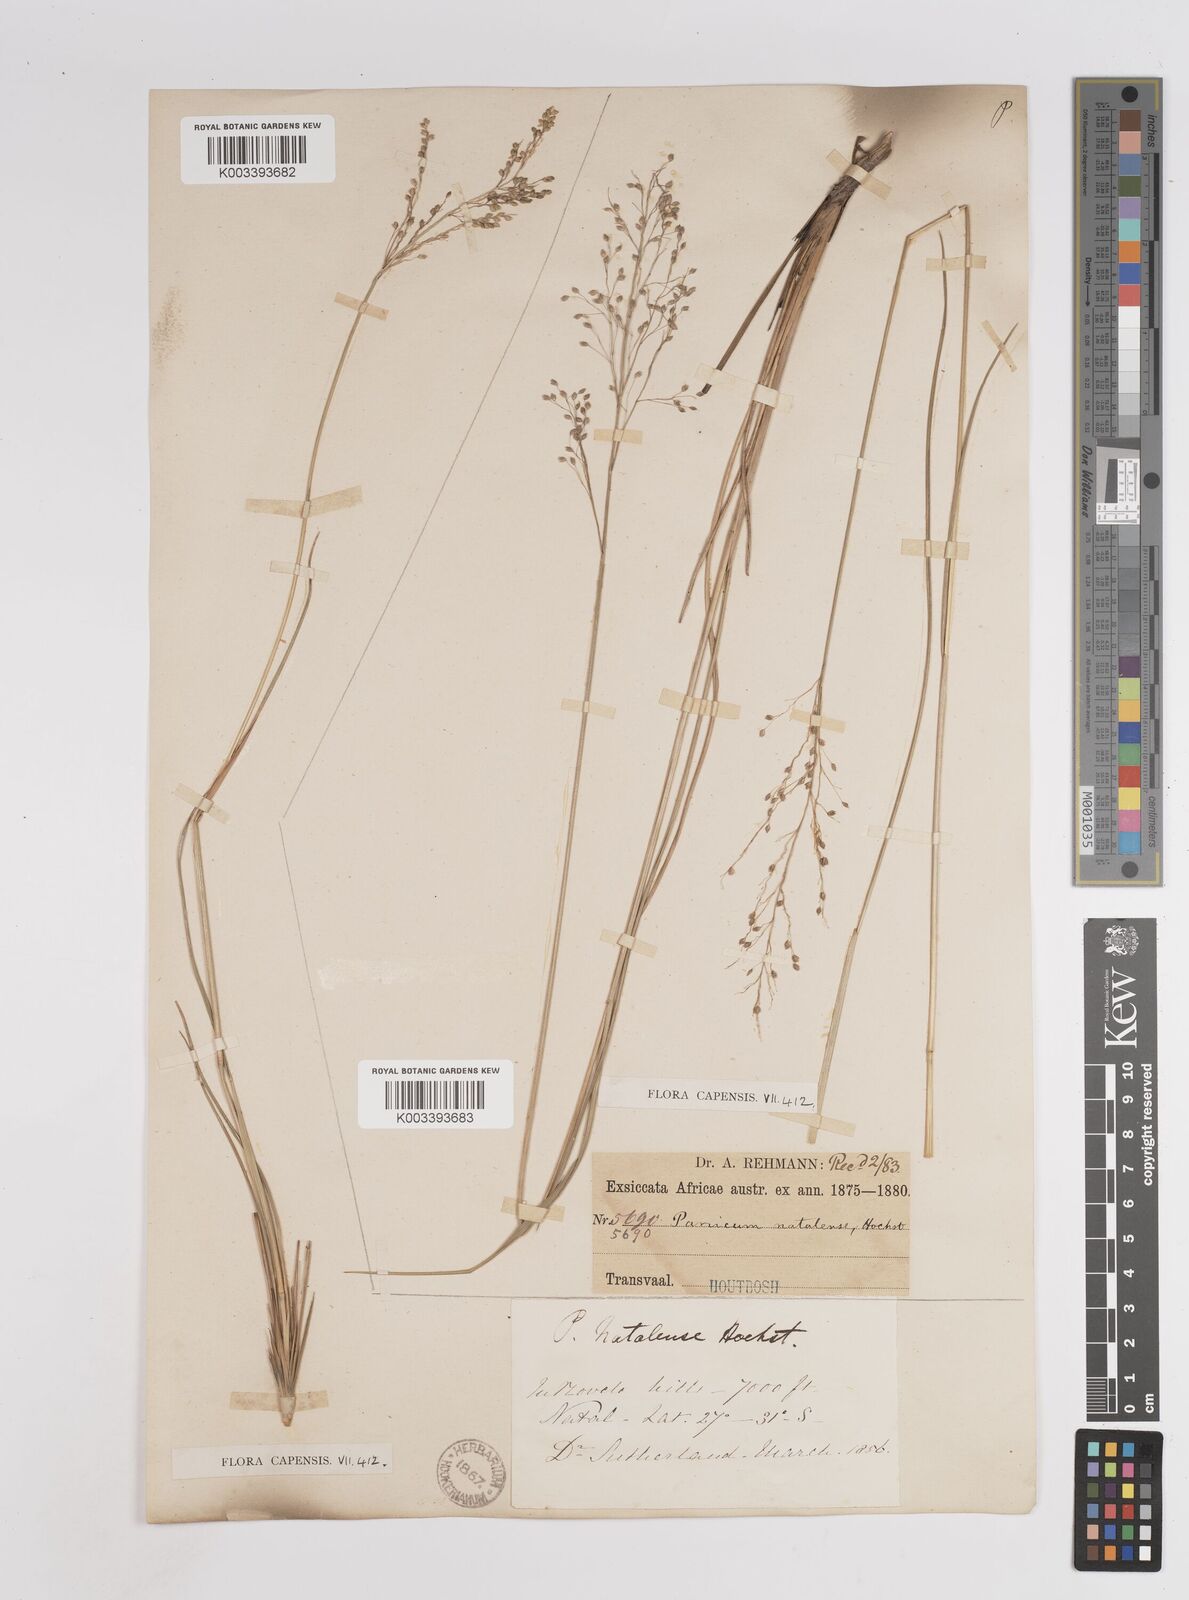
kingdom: Plantae
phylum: Tracheophyta
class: Liliopsida
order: Poales
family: Poaceae
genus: Trichanthecium
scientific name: Trichanthecium natalense
